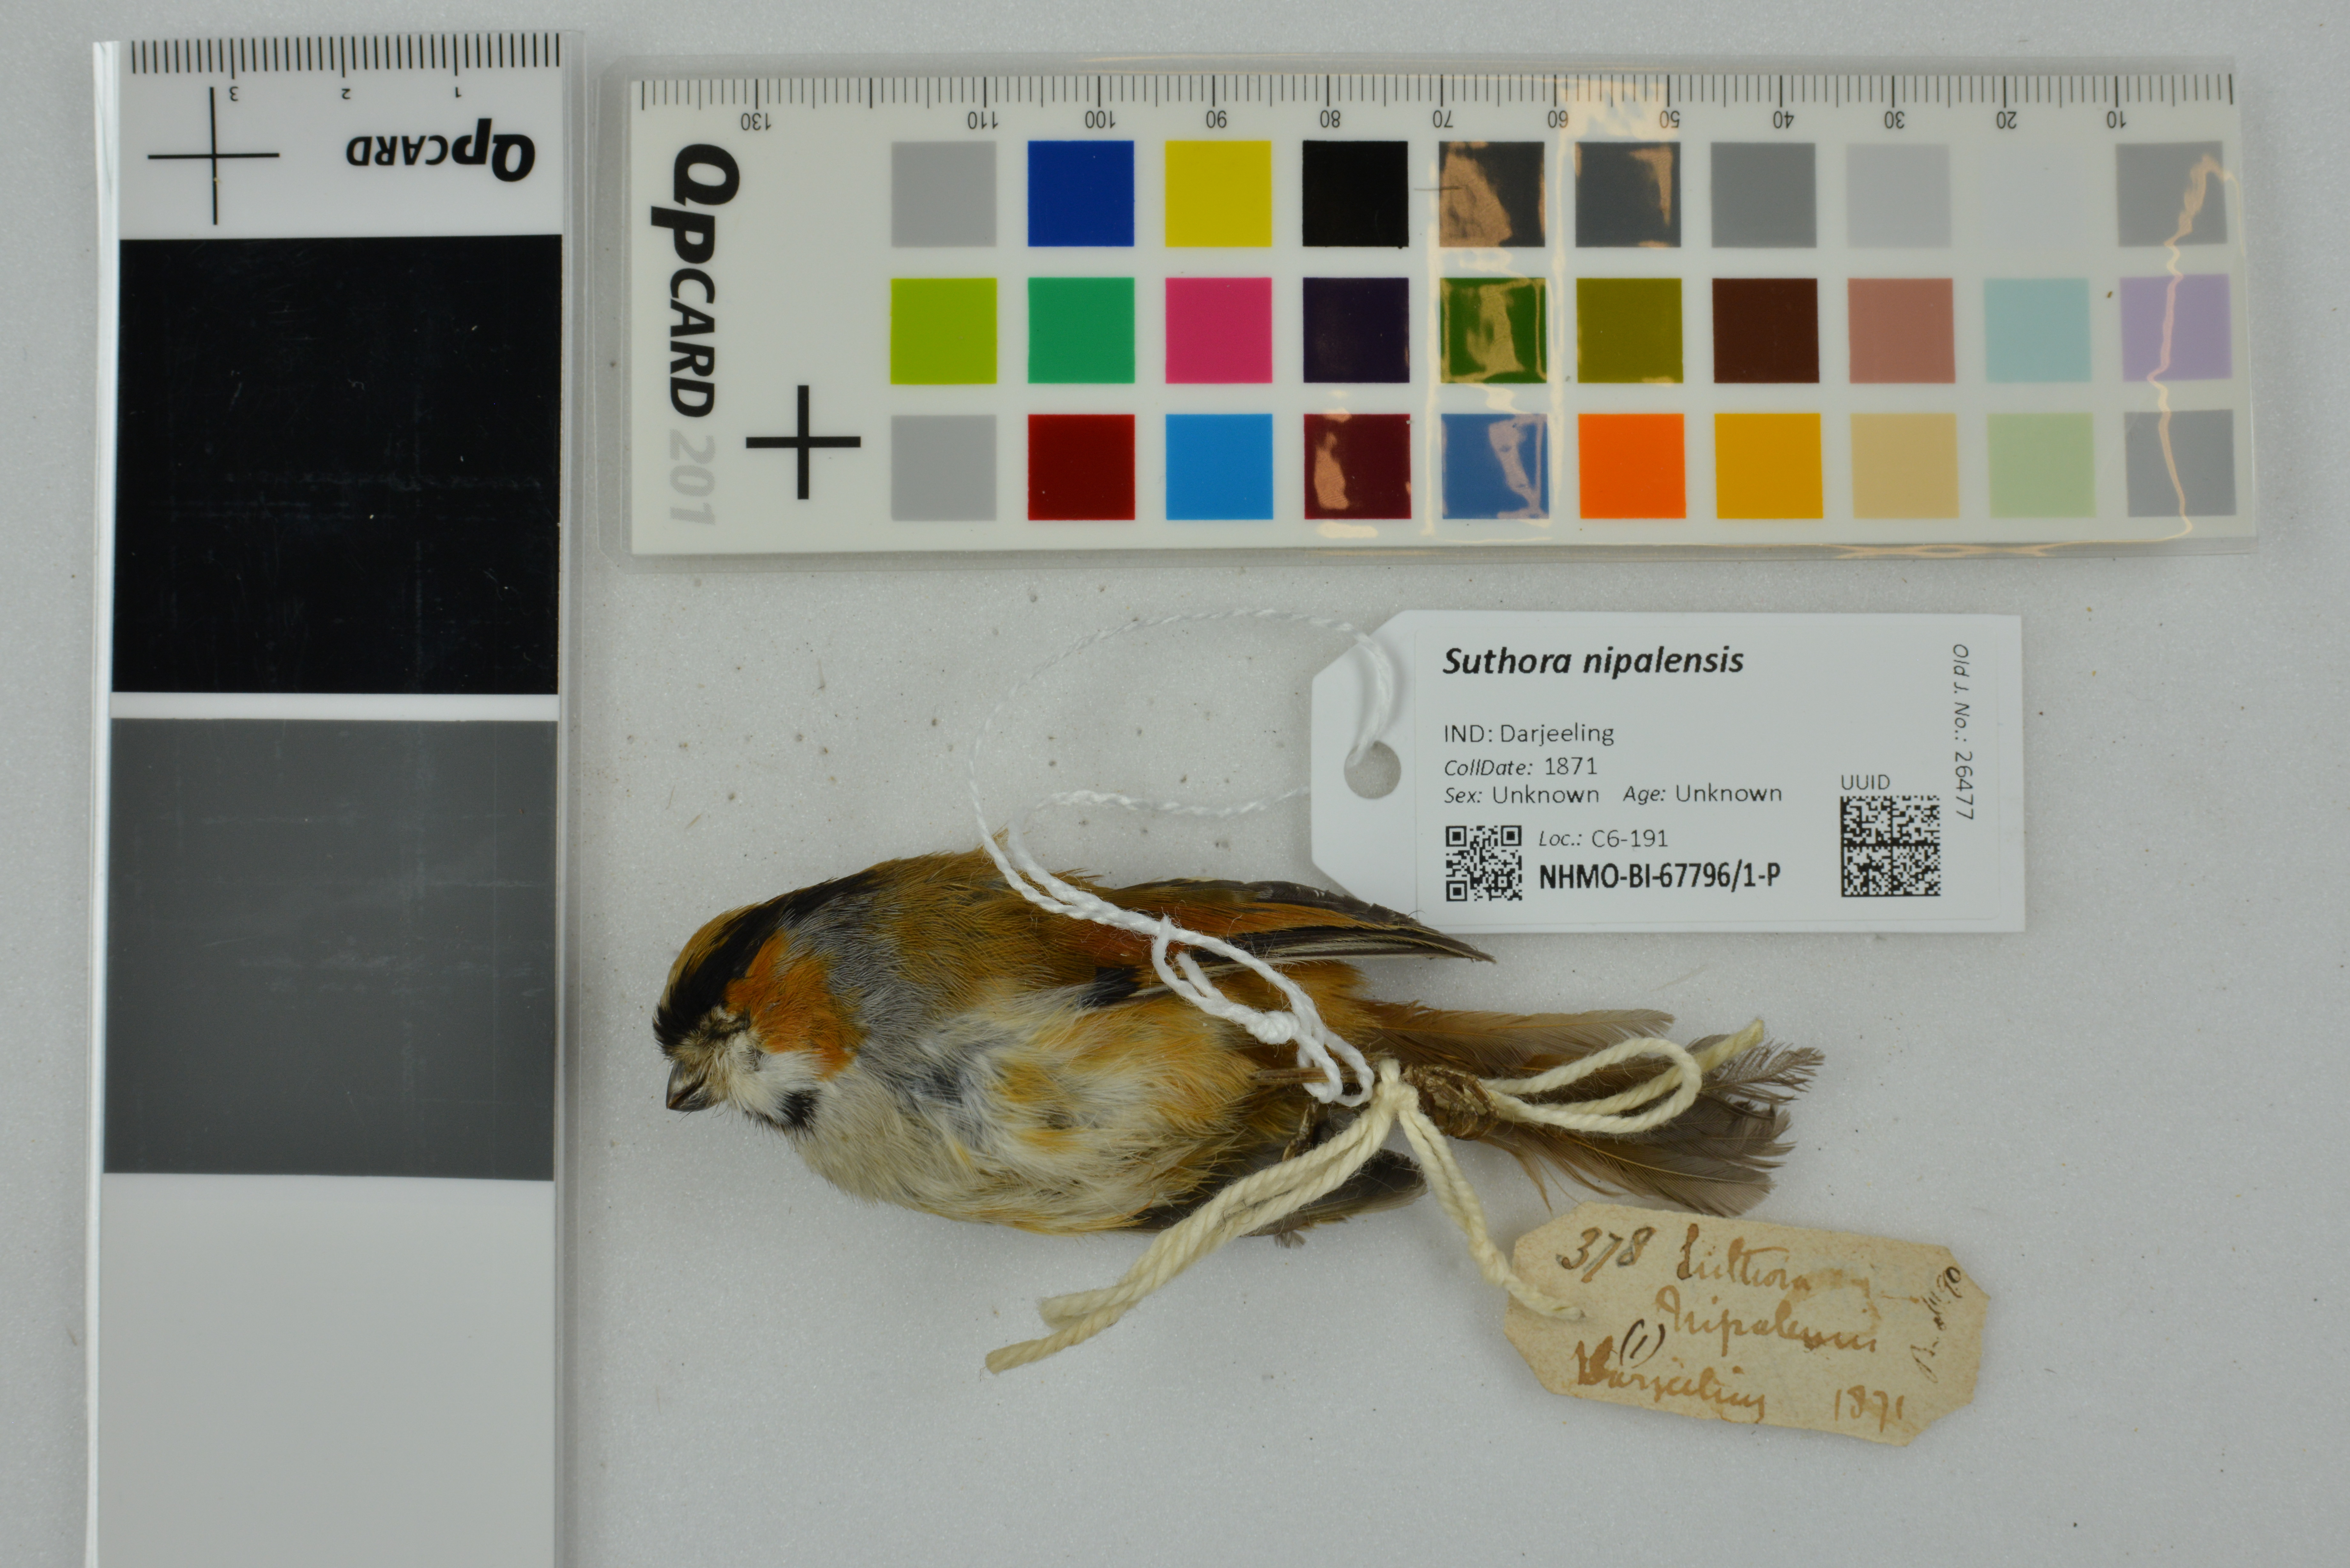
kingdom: Animalia
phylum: Chordata
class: Aves
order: Passeriformes
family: Sylviidae
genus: Suthora
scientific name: Suthora nipalensis
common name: Black-throated parrotbill
